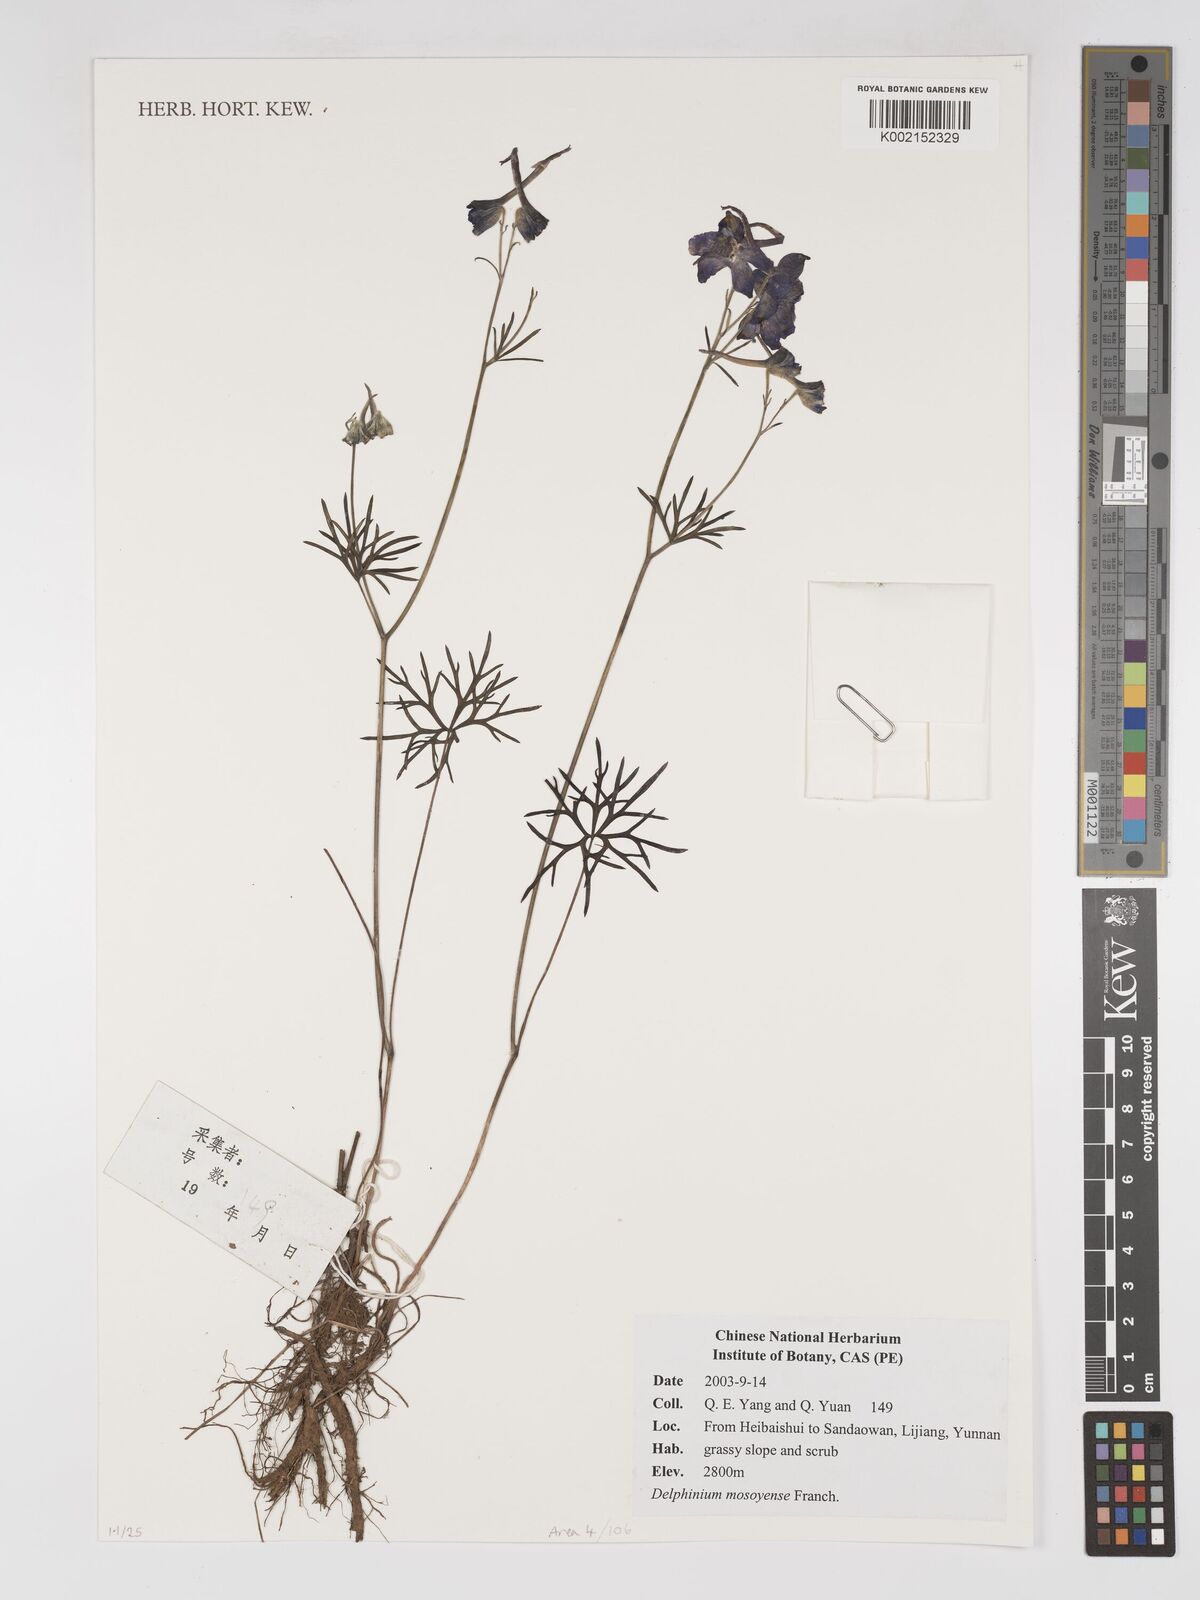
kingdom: Plantae
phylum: Tracheophyta
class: Magnoliopsida
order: Ranunculales
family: Ranunculaceae
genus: Delphinium
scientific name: Delphinium grandiflorum
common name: Siberian larkspur
